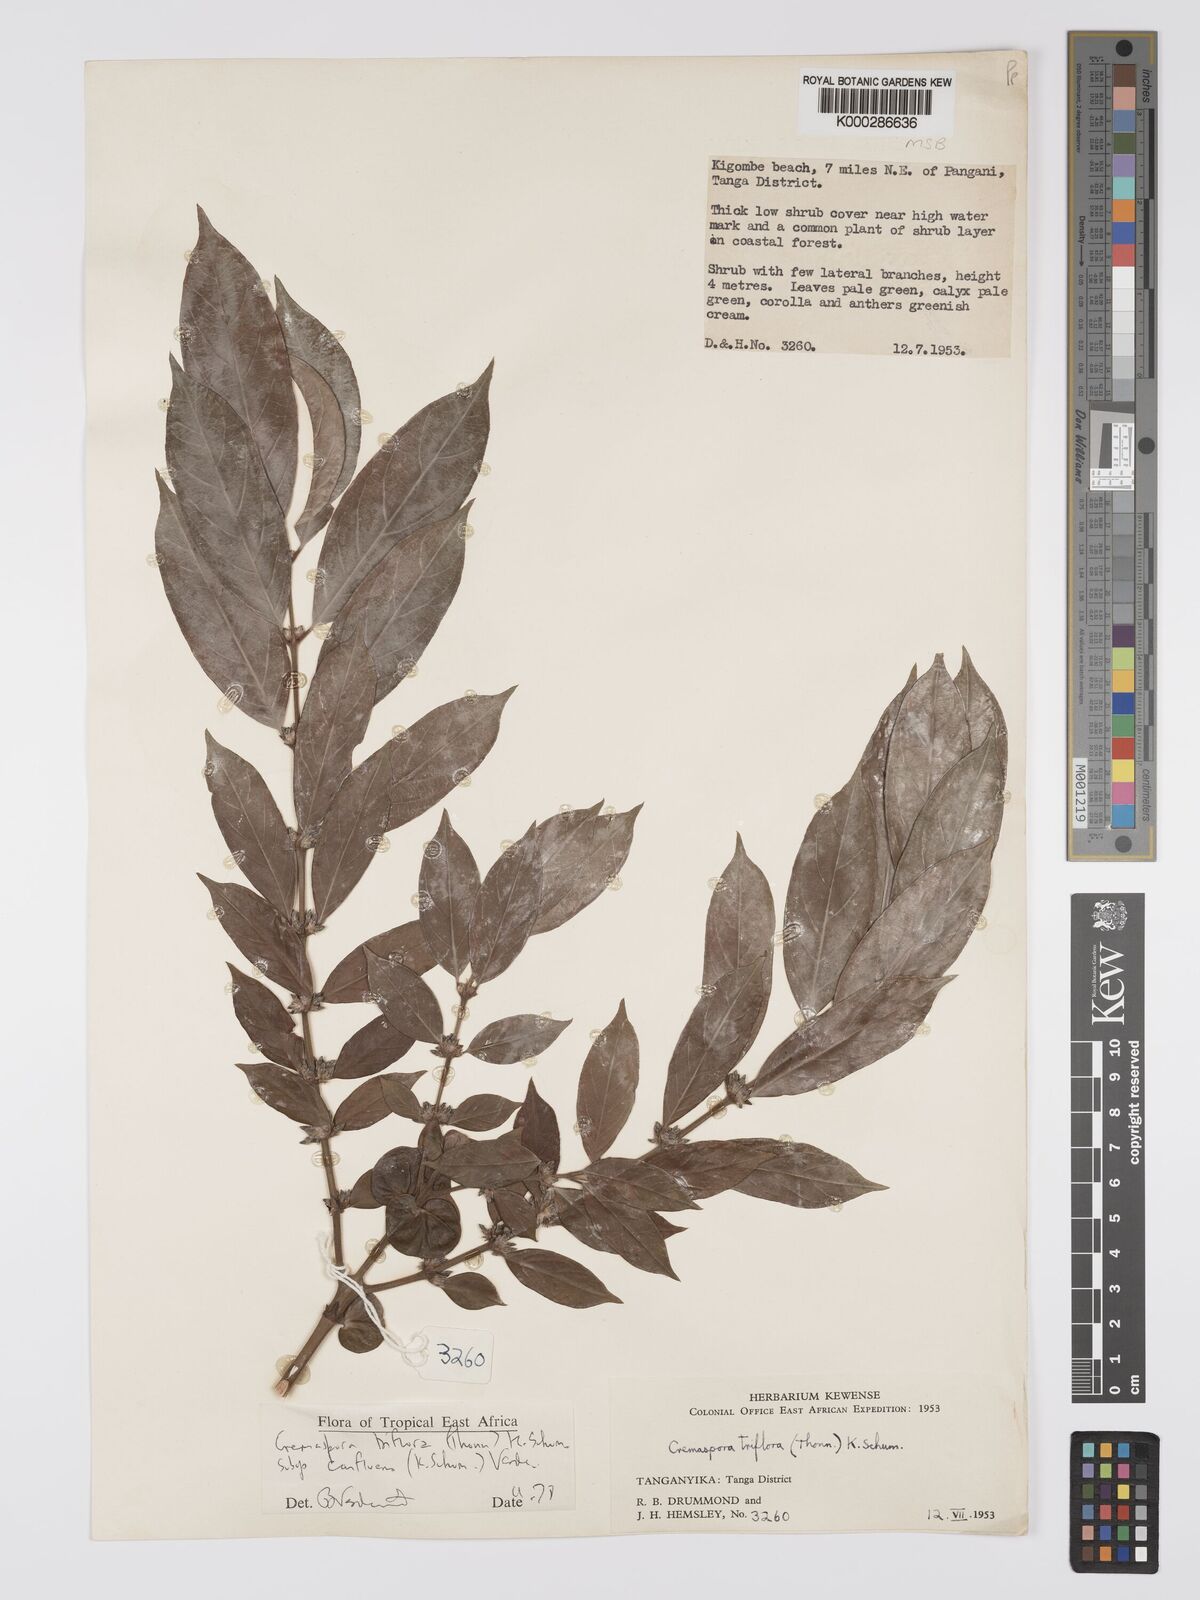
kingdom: Plantae
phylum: Tracheophyta
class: Magnoliopsida
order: Gentianales
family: Rubiaceae
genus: Cremaspora
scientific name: Cremaspora triflora
